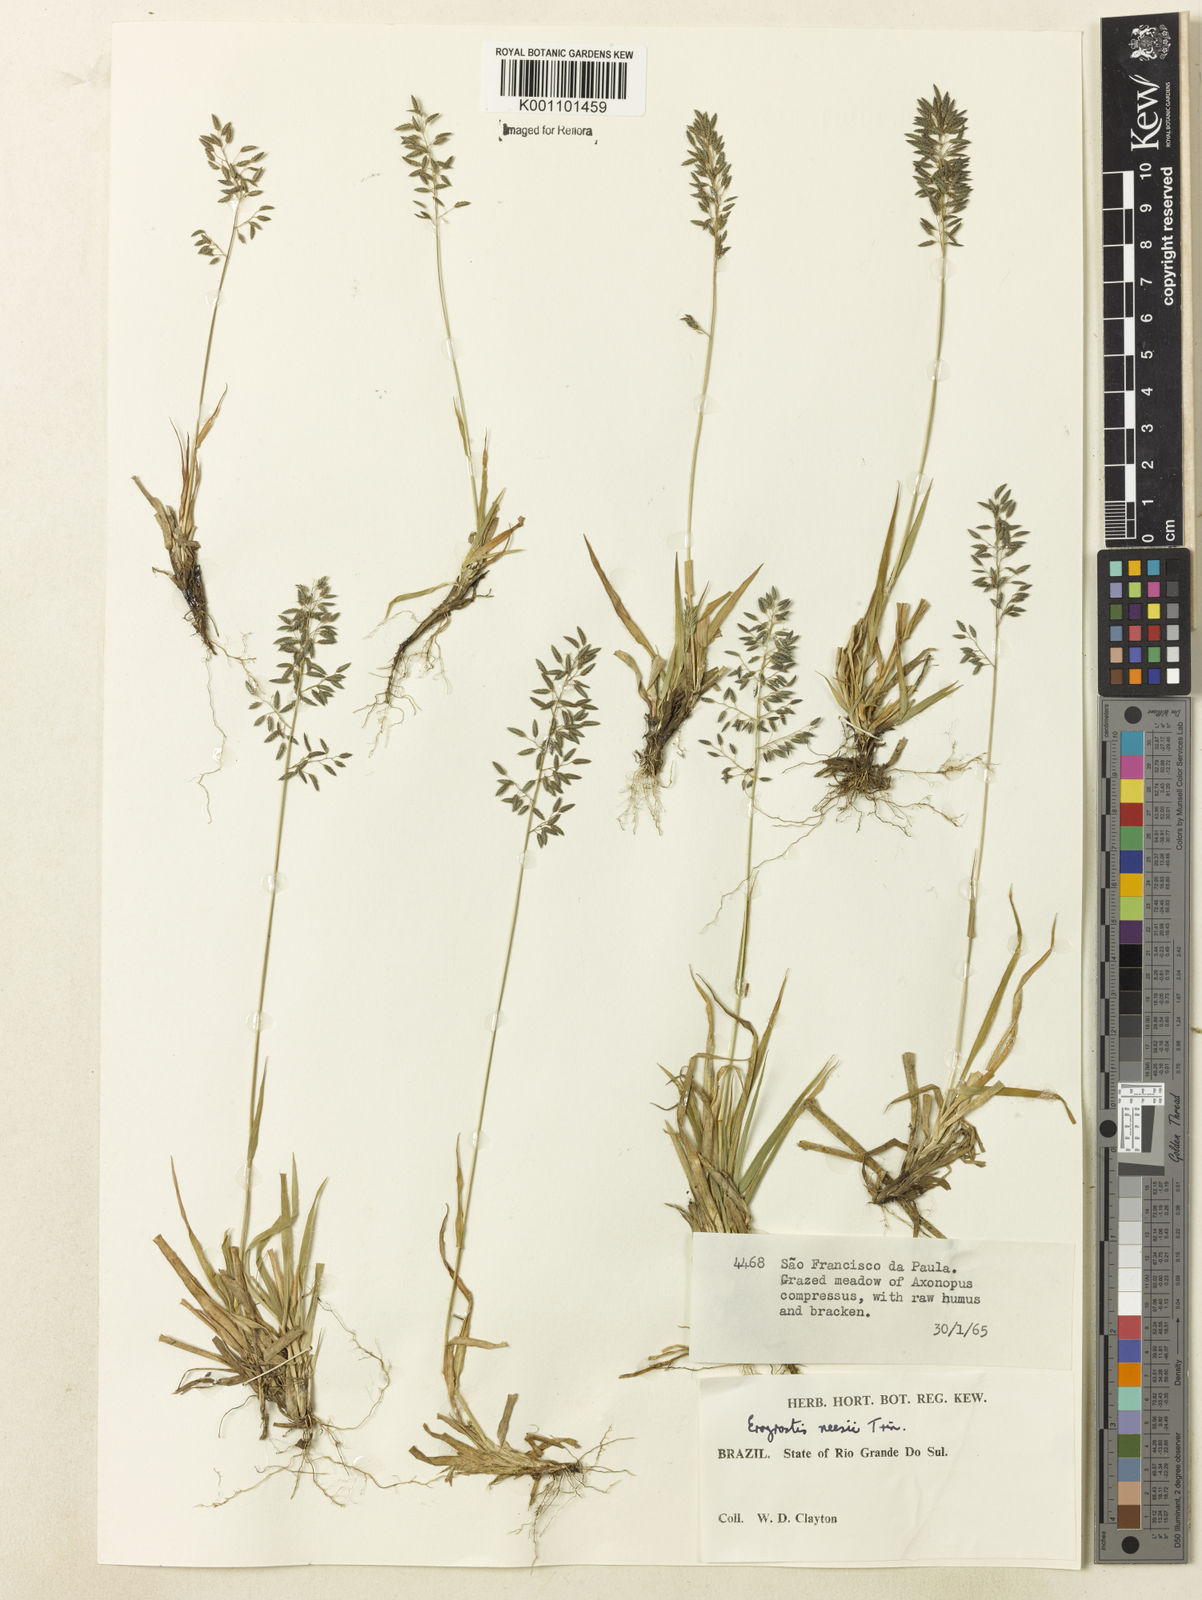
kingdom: Plantae
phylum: Tracheophyta
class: Liliopsida
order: Poales
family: Poaceae
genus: Eragrostis
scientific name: Eragrostis neesii
